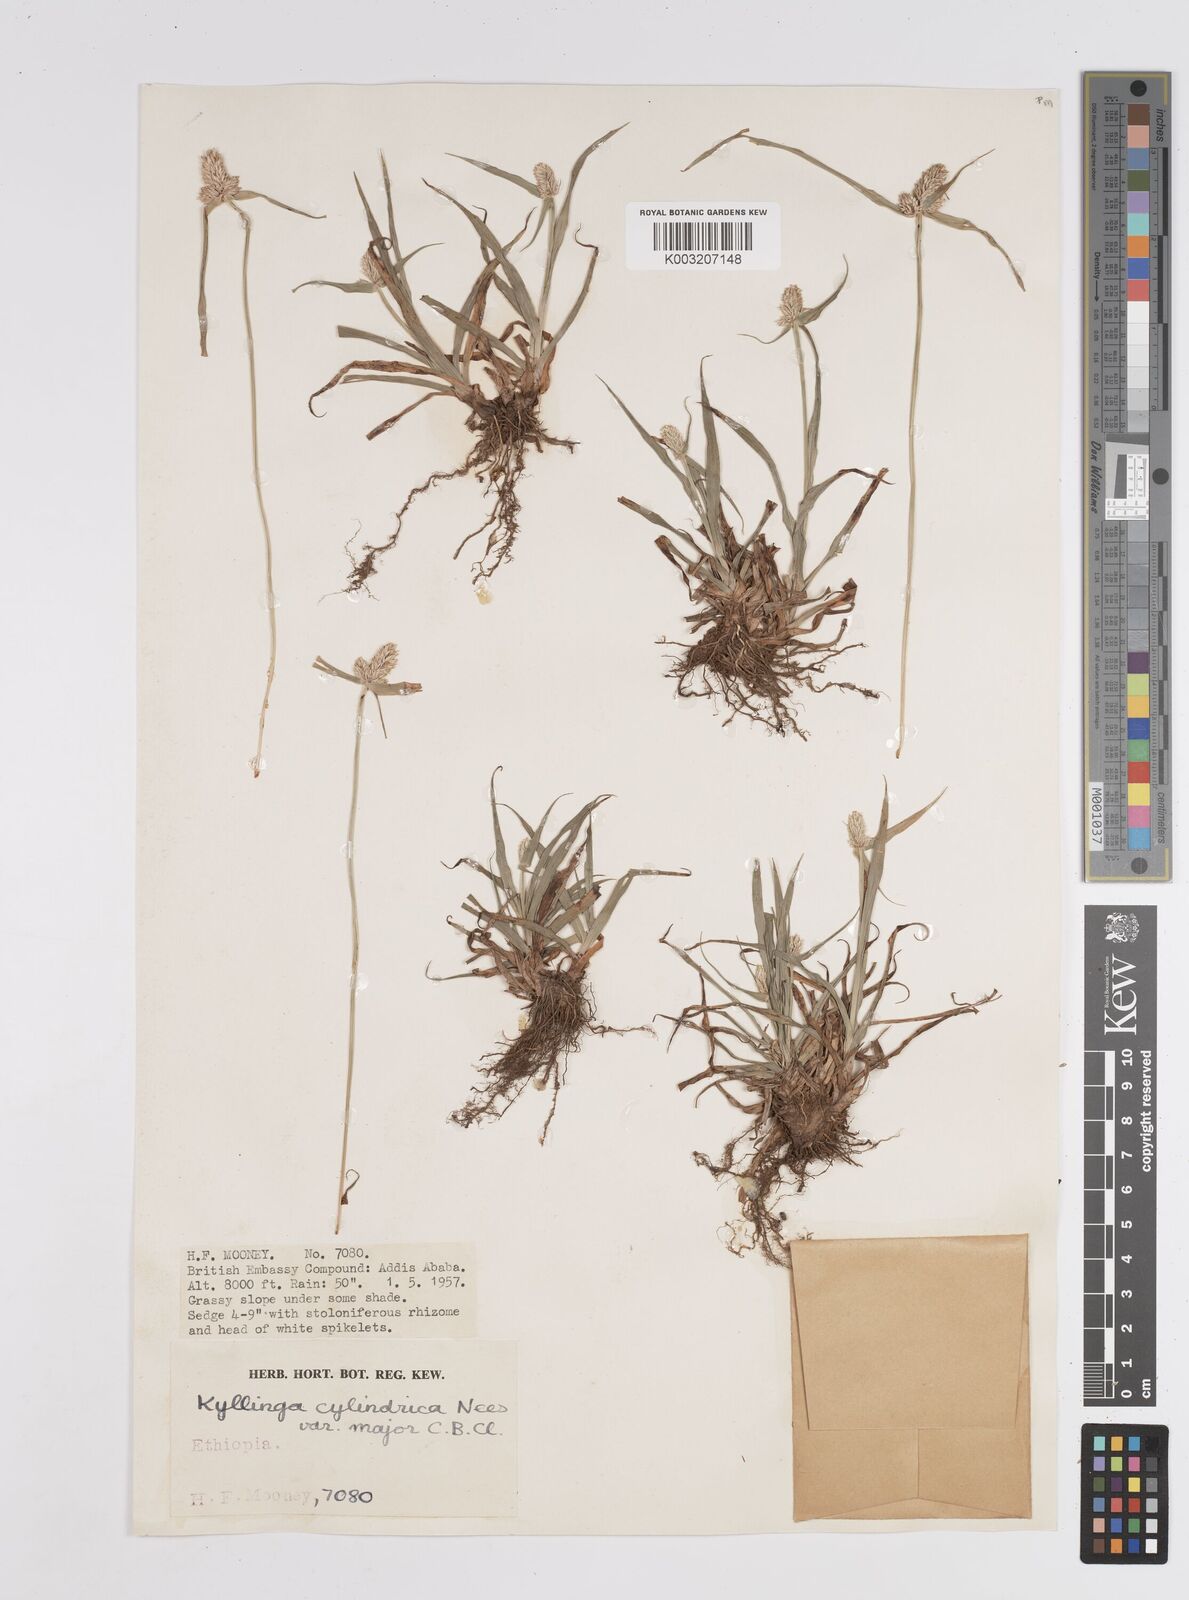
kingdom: Plantae
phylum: Tracheophyta
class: Liliopsida
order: Poales
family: Cyperaceae
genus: Cyperus
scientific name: Cyperus
